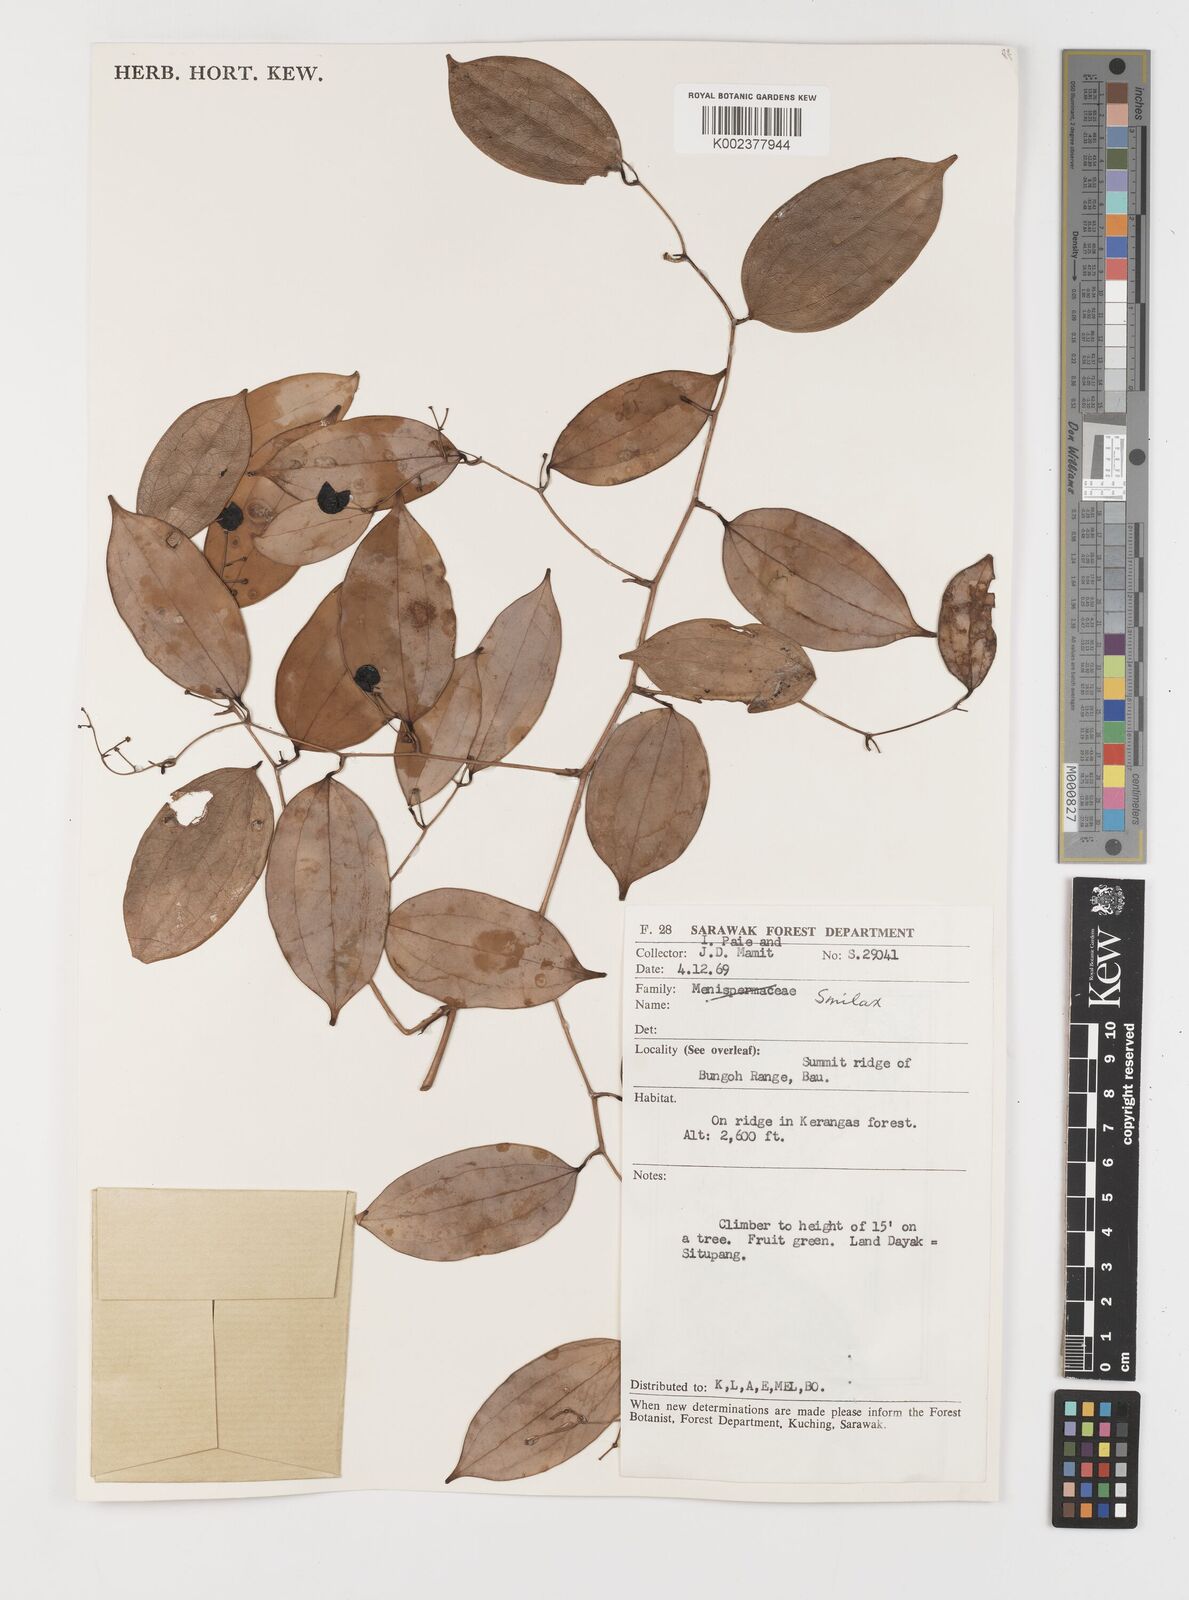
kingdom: Plantae
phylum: Tracheophyta
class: Liliopsida
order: Liliales
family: Smilacaceae
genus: Smilax
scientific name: Smilax
